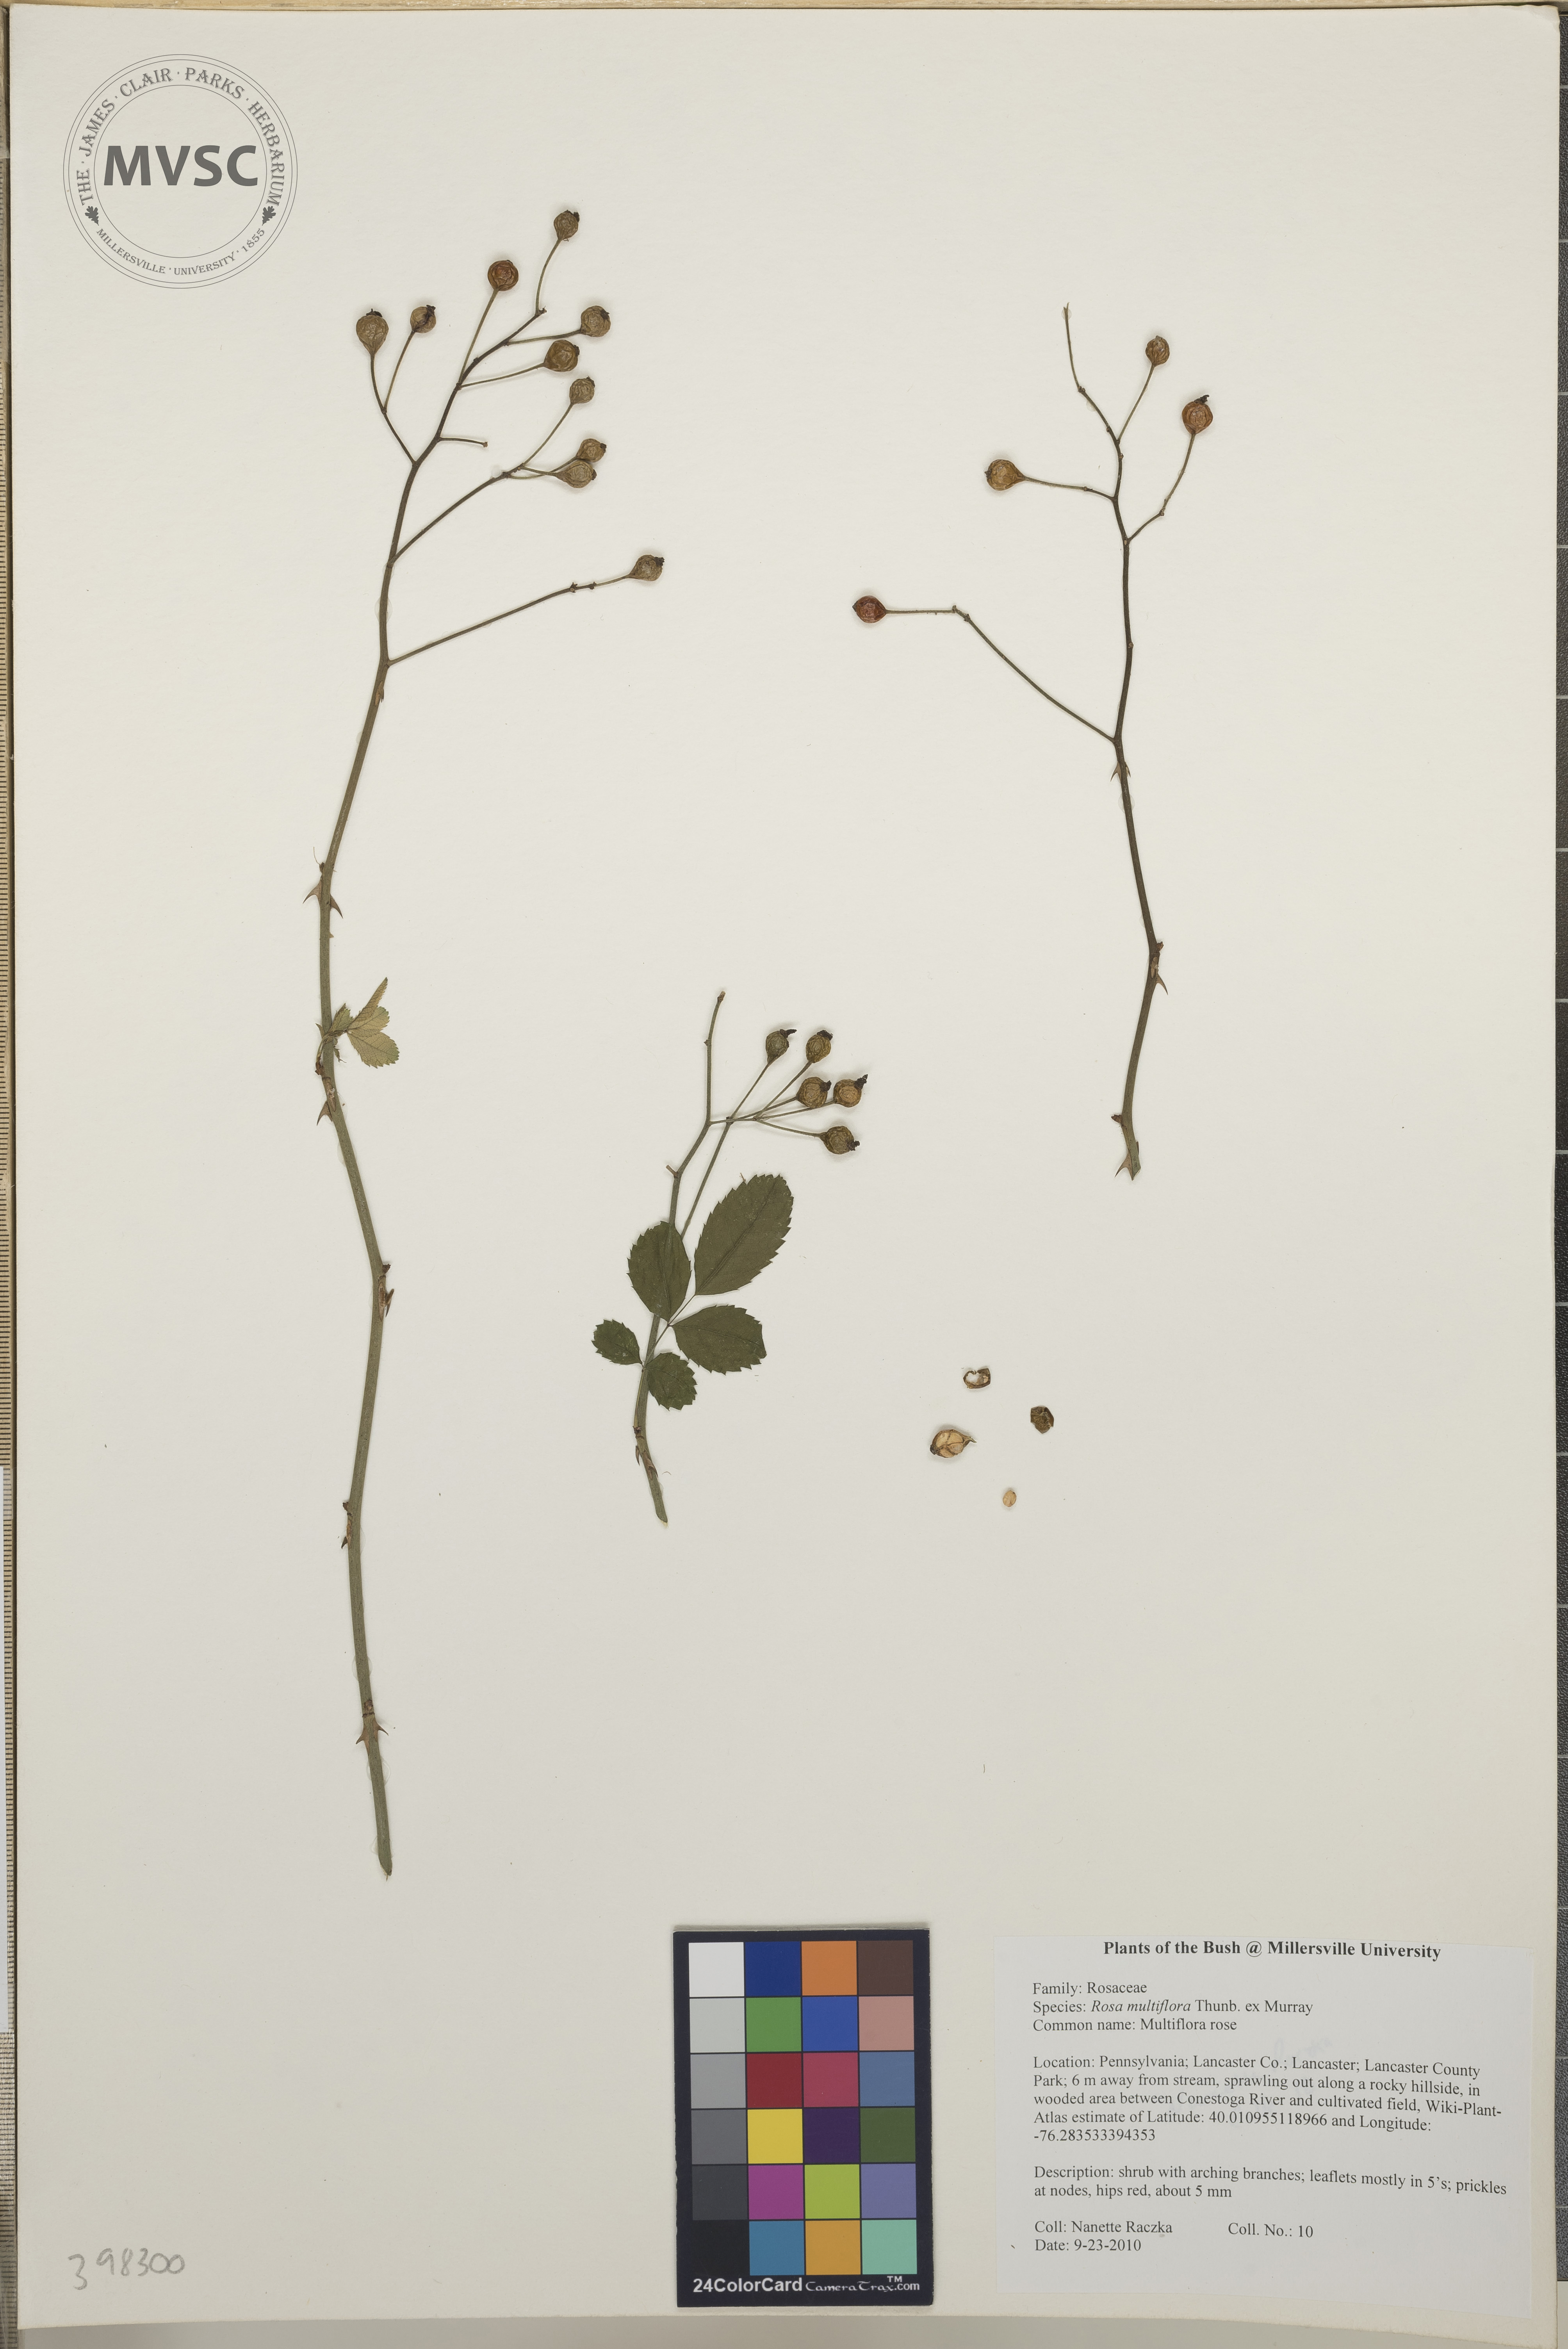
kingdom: Plantae
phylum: Tracheophyta
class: Magnoliopsida
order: Rosales
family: Rosaceae
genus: Rosa
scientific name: Rosa multiflora
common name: Multiflora rose
